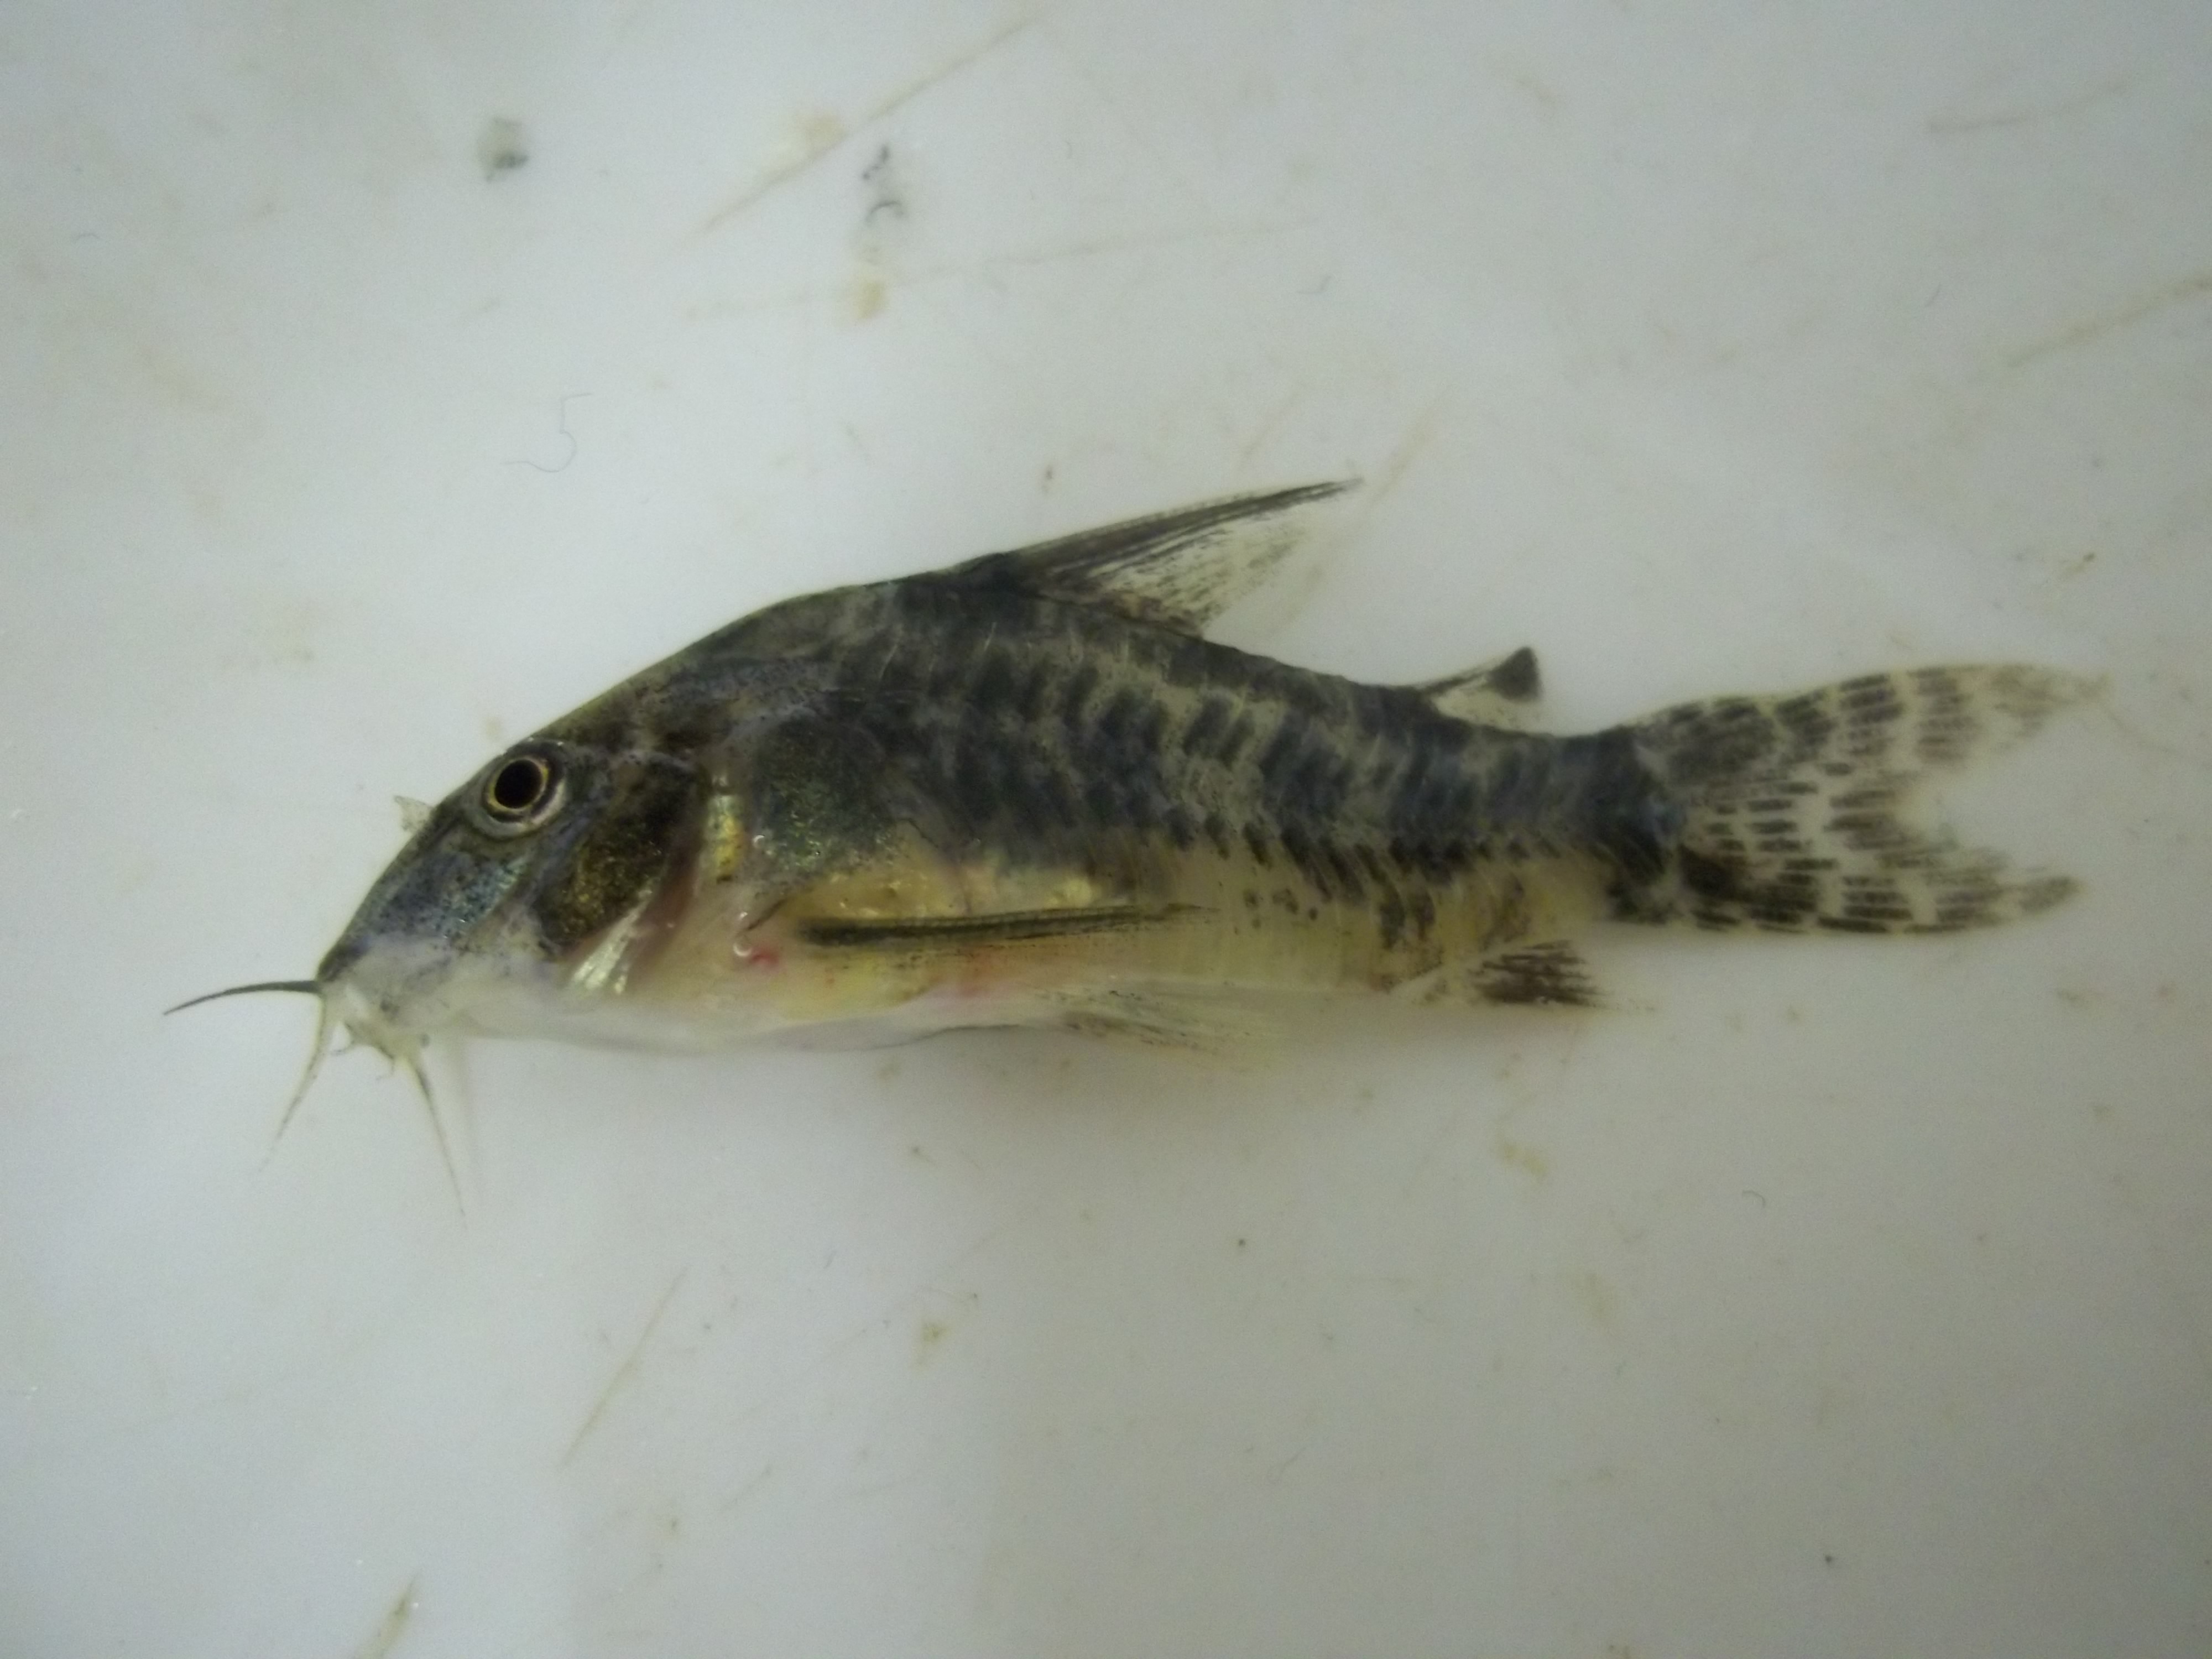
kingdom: Animalia
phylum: Chordata
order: Siluriformes
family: Callichthyidae
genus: Corydoras
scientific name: Corydoras paleatus
